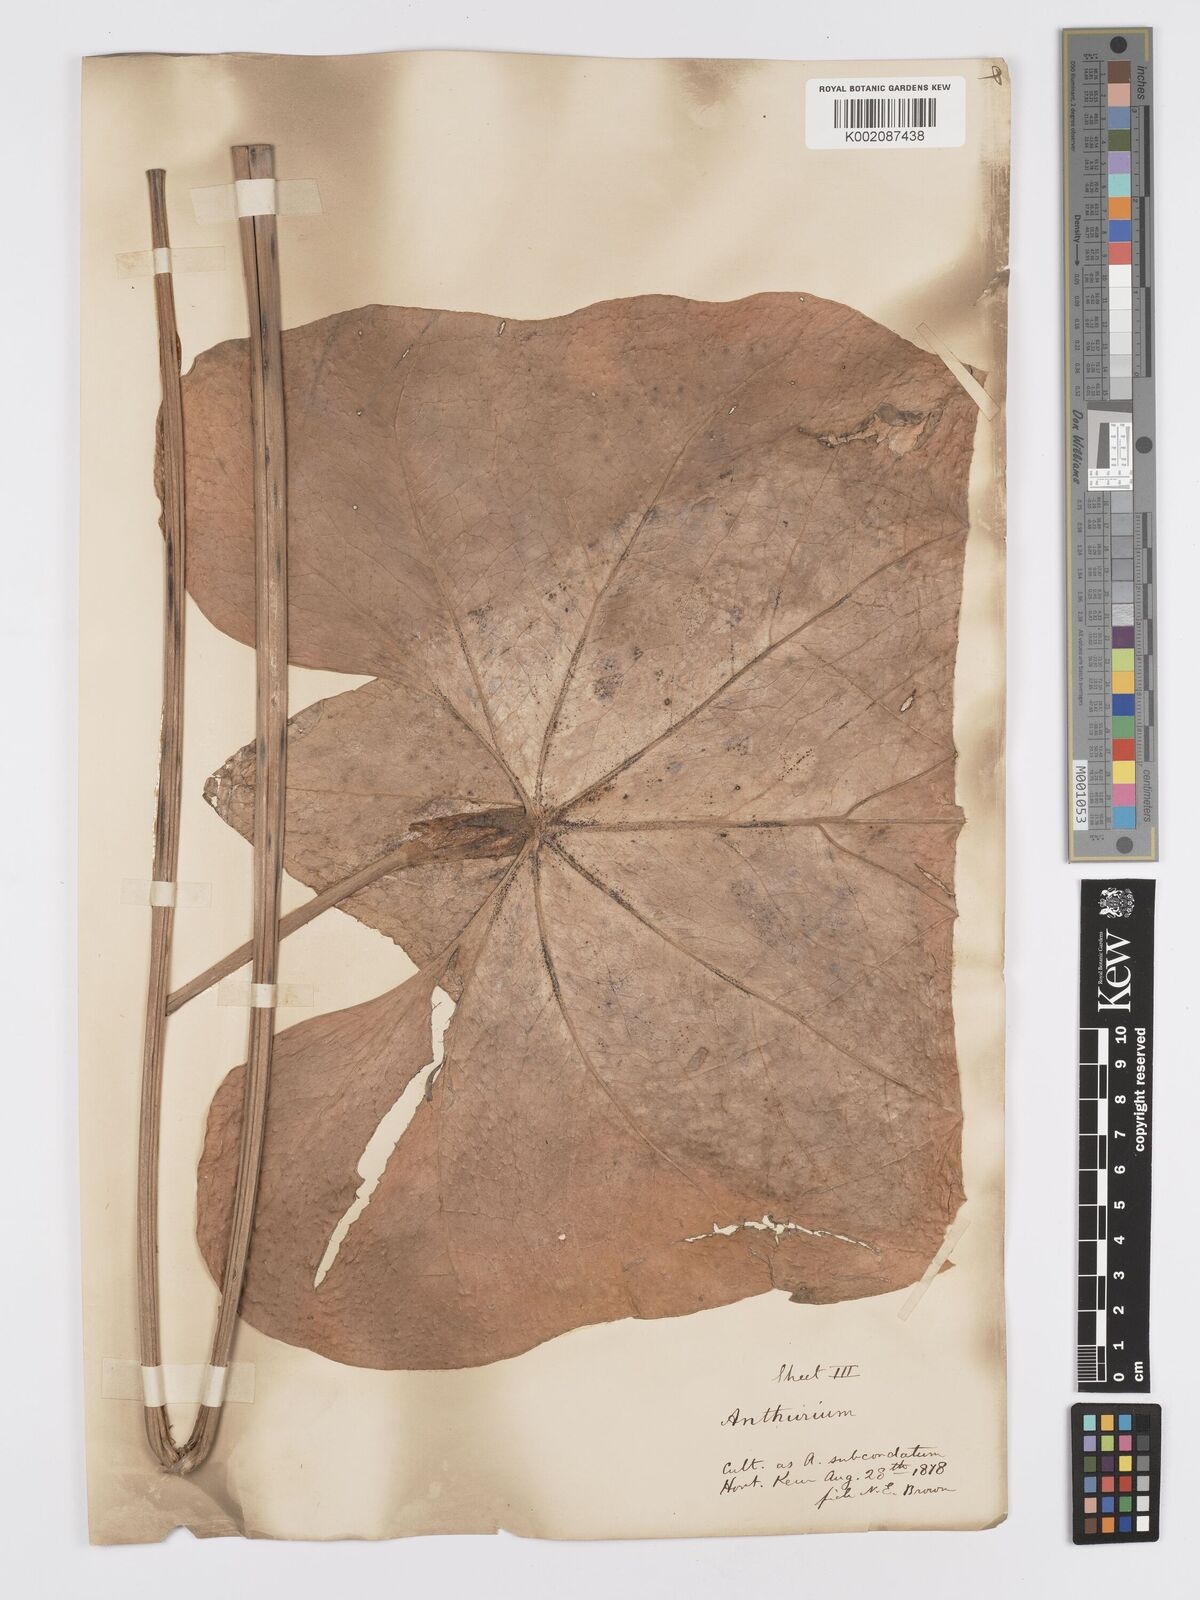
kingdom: Plantae
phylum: Tracheophyta
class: Liliopsida
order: Alismatales
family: Araceae
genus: Anthurium
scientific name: Anthurium
